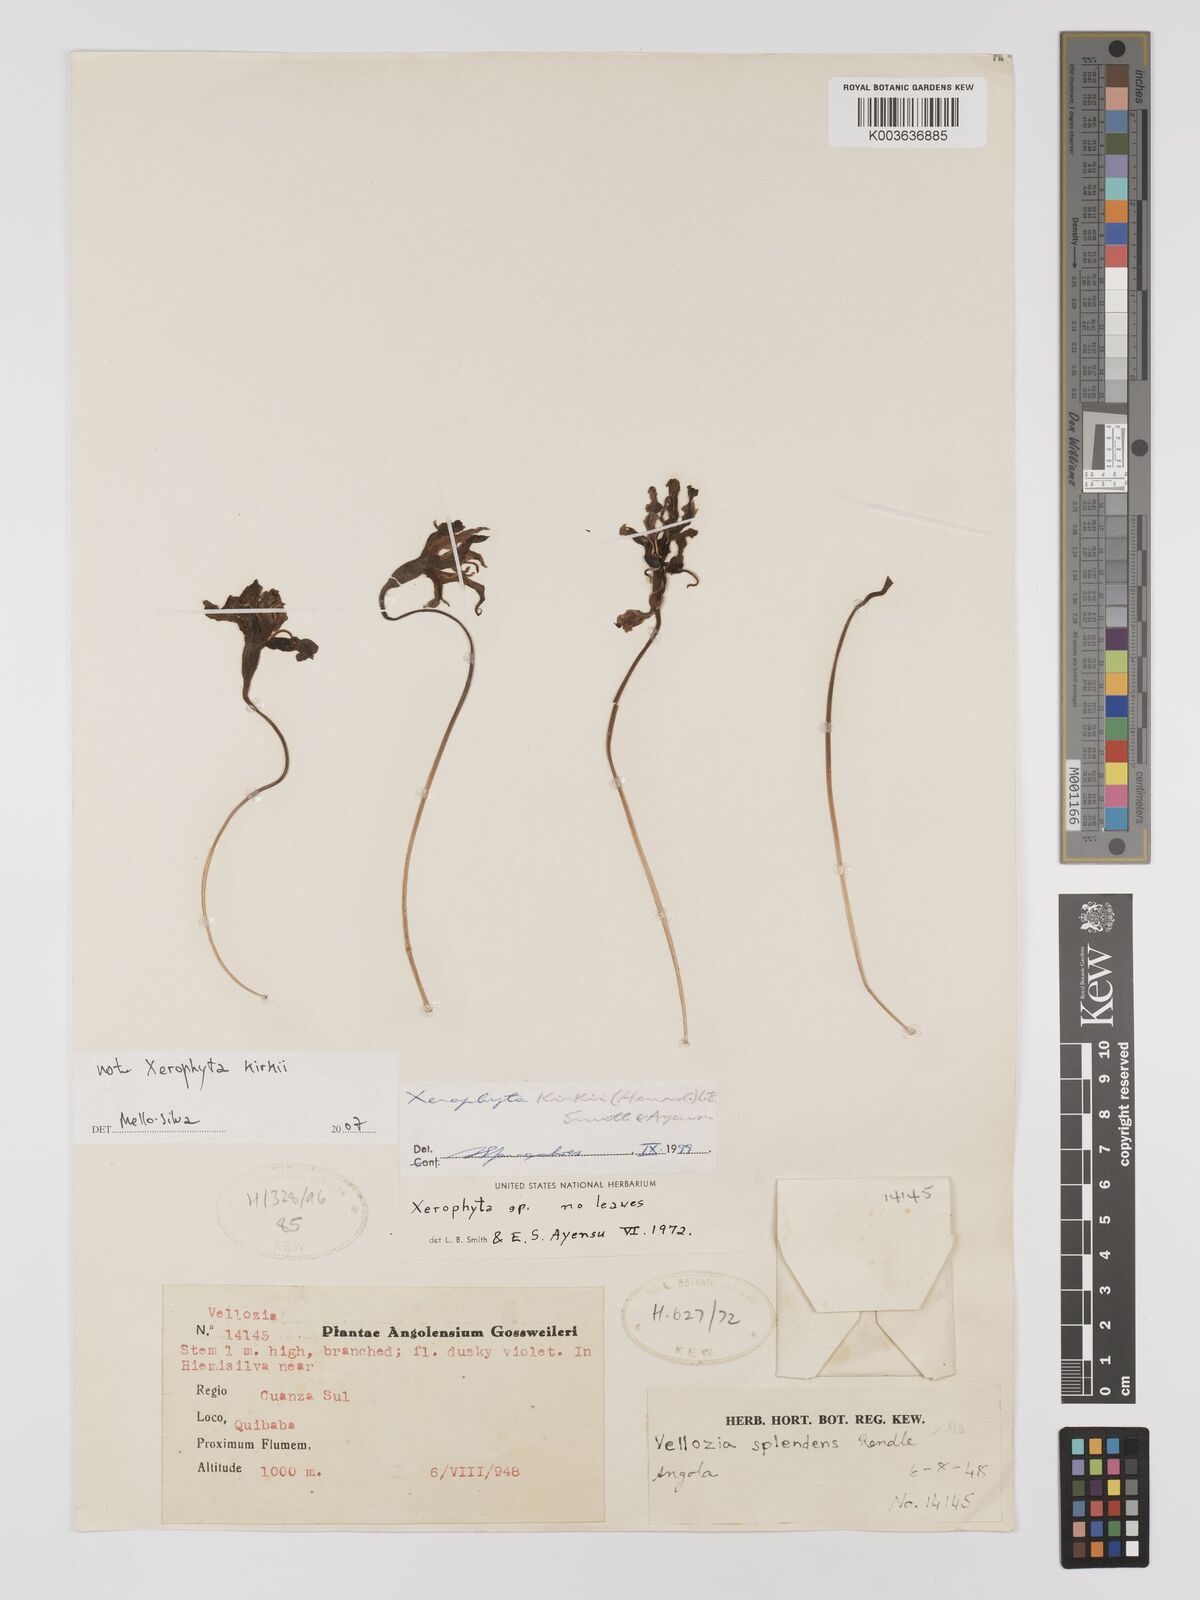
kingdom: Plantae
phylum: Tracheophyta
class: Liliopsida
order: Pandanales
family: Velloziaceae
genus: Xerophyta
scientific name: Xerophyta
